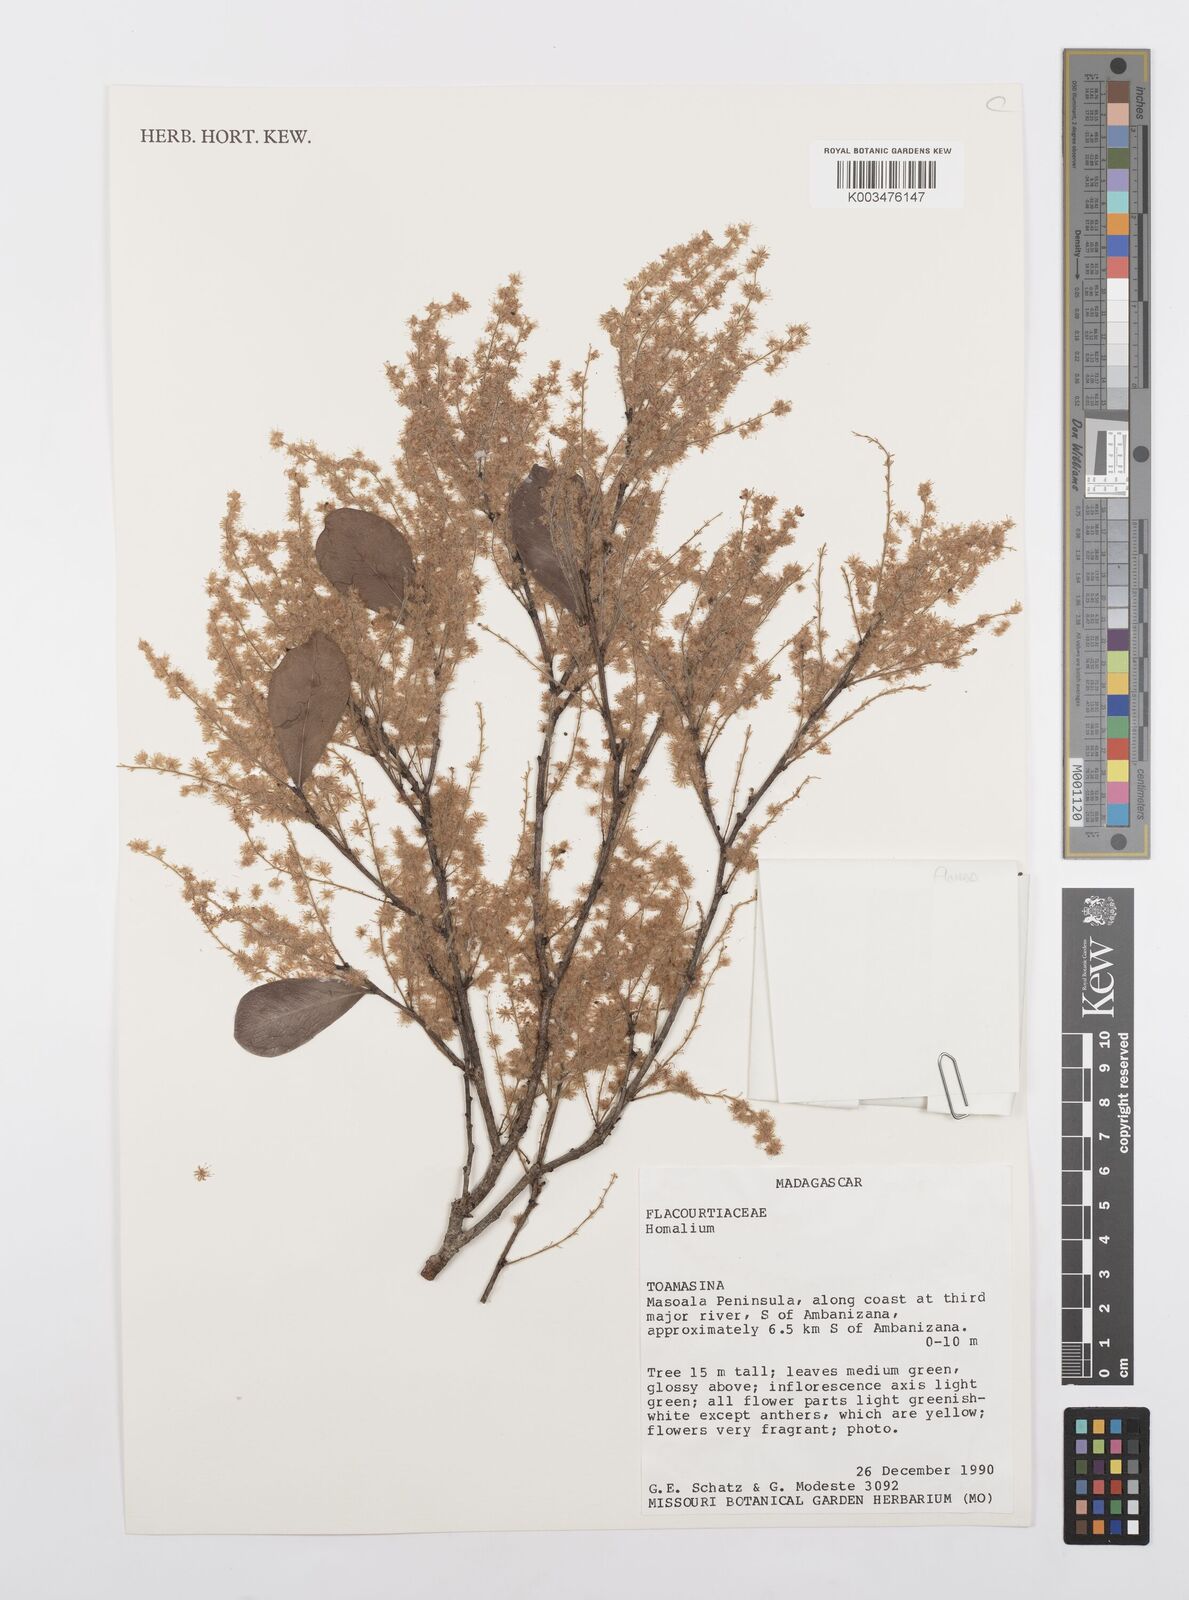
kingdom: Plantae
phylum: Tracheophyta
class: Magnoliopsida
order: Malpighiales
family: Salicaceae
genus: Homalium
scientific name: Homalium
